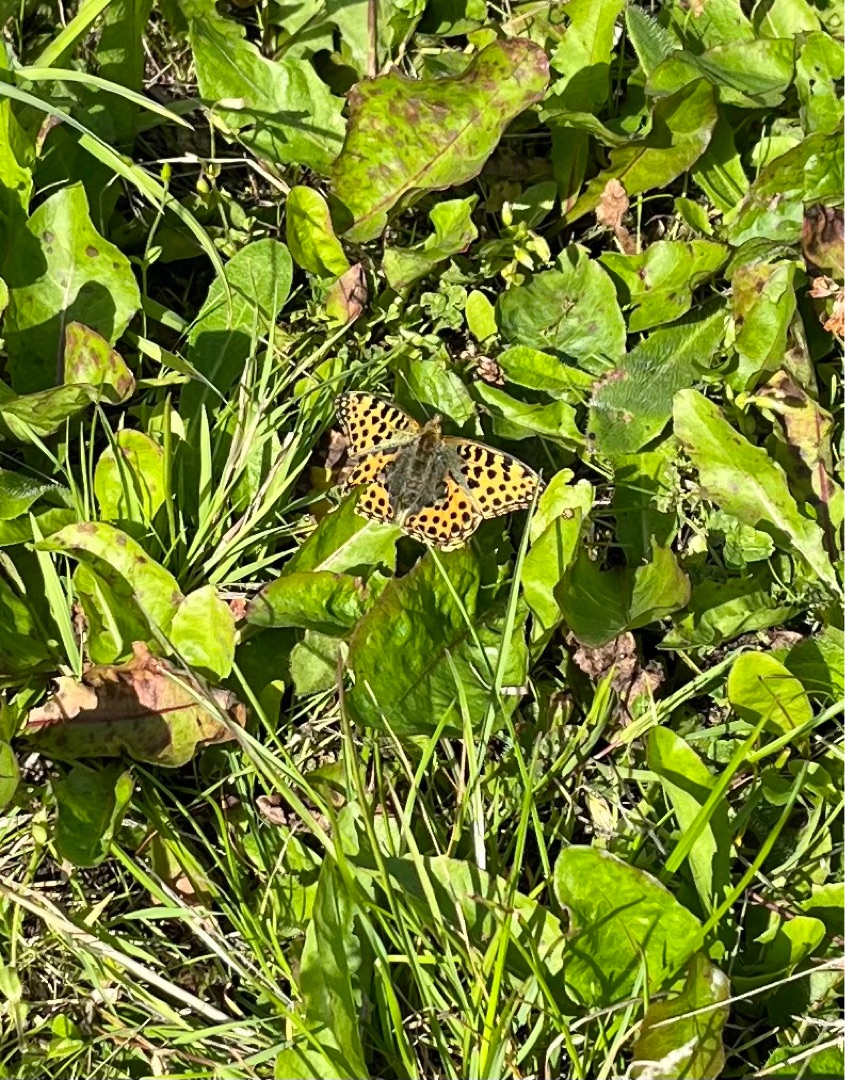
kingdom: Animalia
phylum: Arthropoda
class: Insecta
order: Lepidoptera
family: Nymphalidae
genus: Issoria
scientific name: Issoria lathonia
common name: Storplettet perlemorsommerfugl
